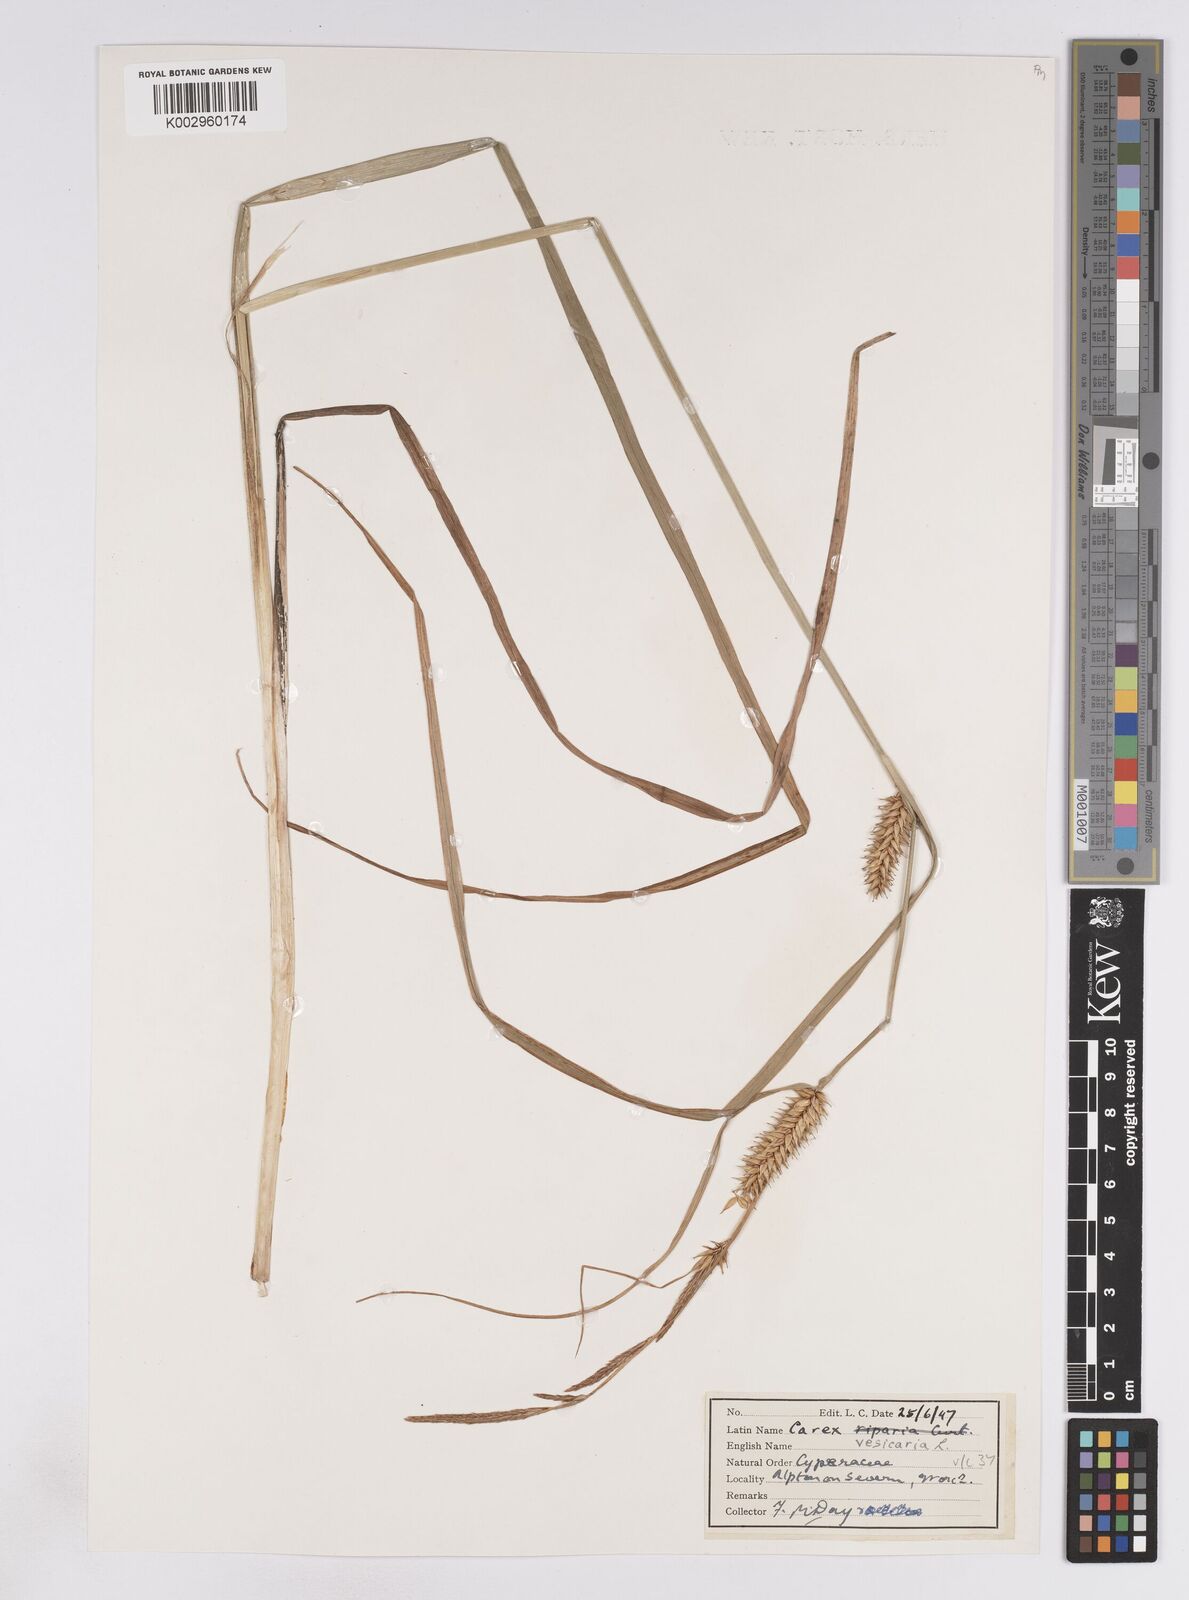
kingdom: Plantae
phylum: Tracheophyta
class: Liliopsida
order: Poales
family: Cyperaceae
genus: Carex
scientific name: Carex vesicaria
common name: Bladder-sedge
